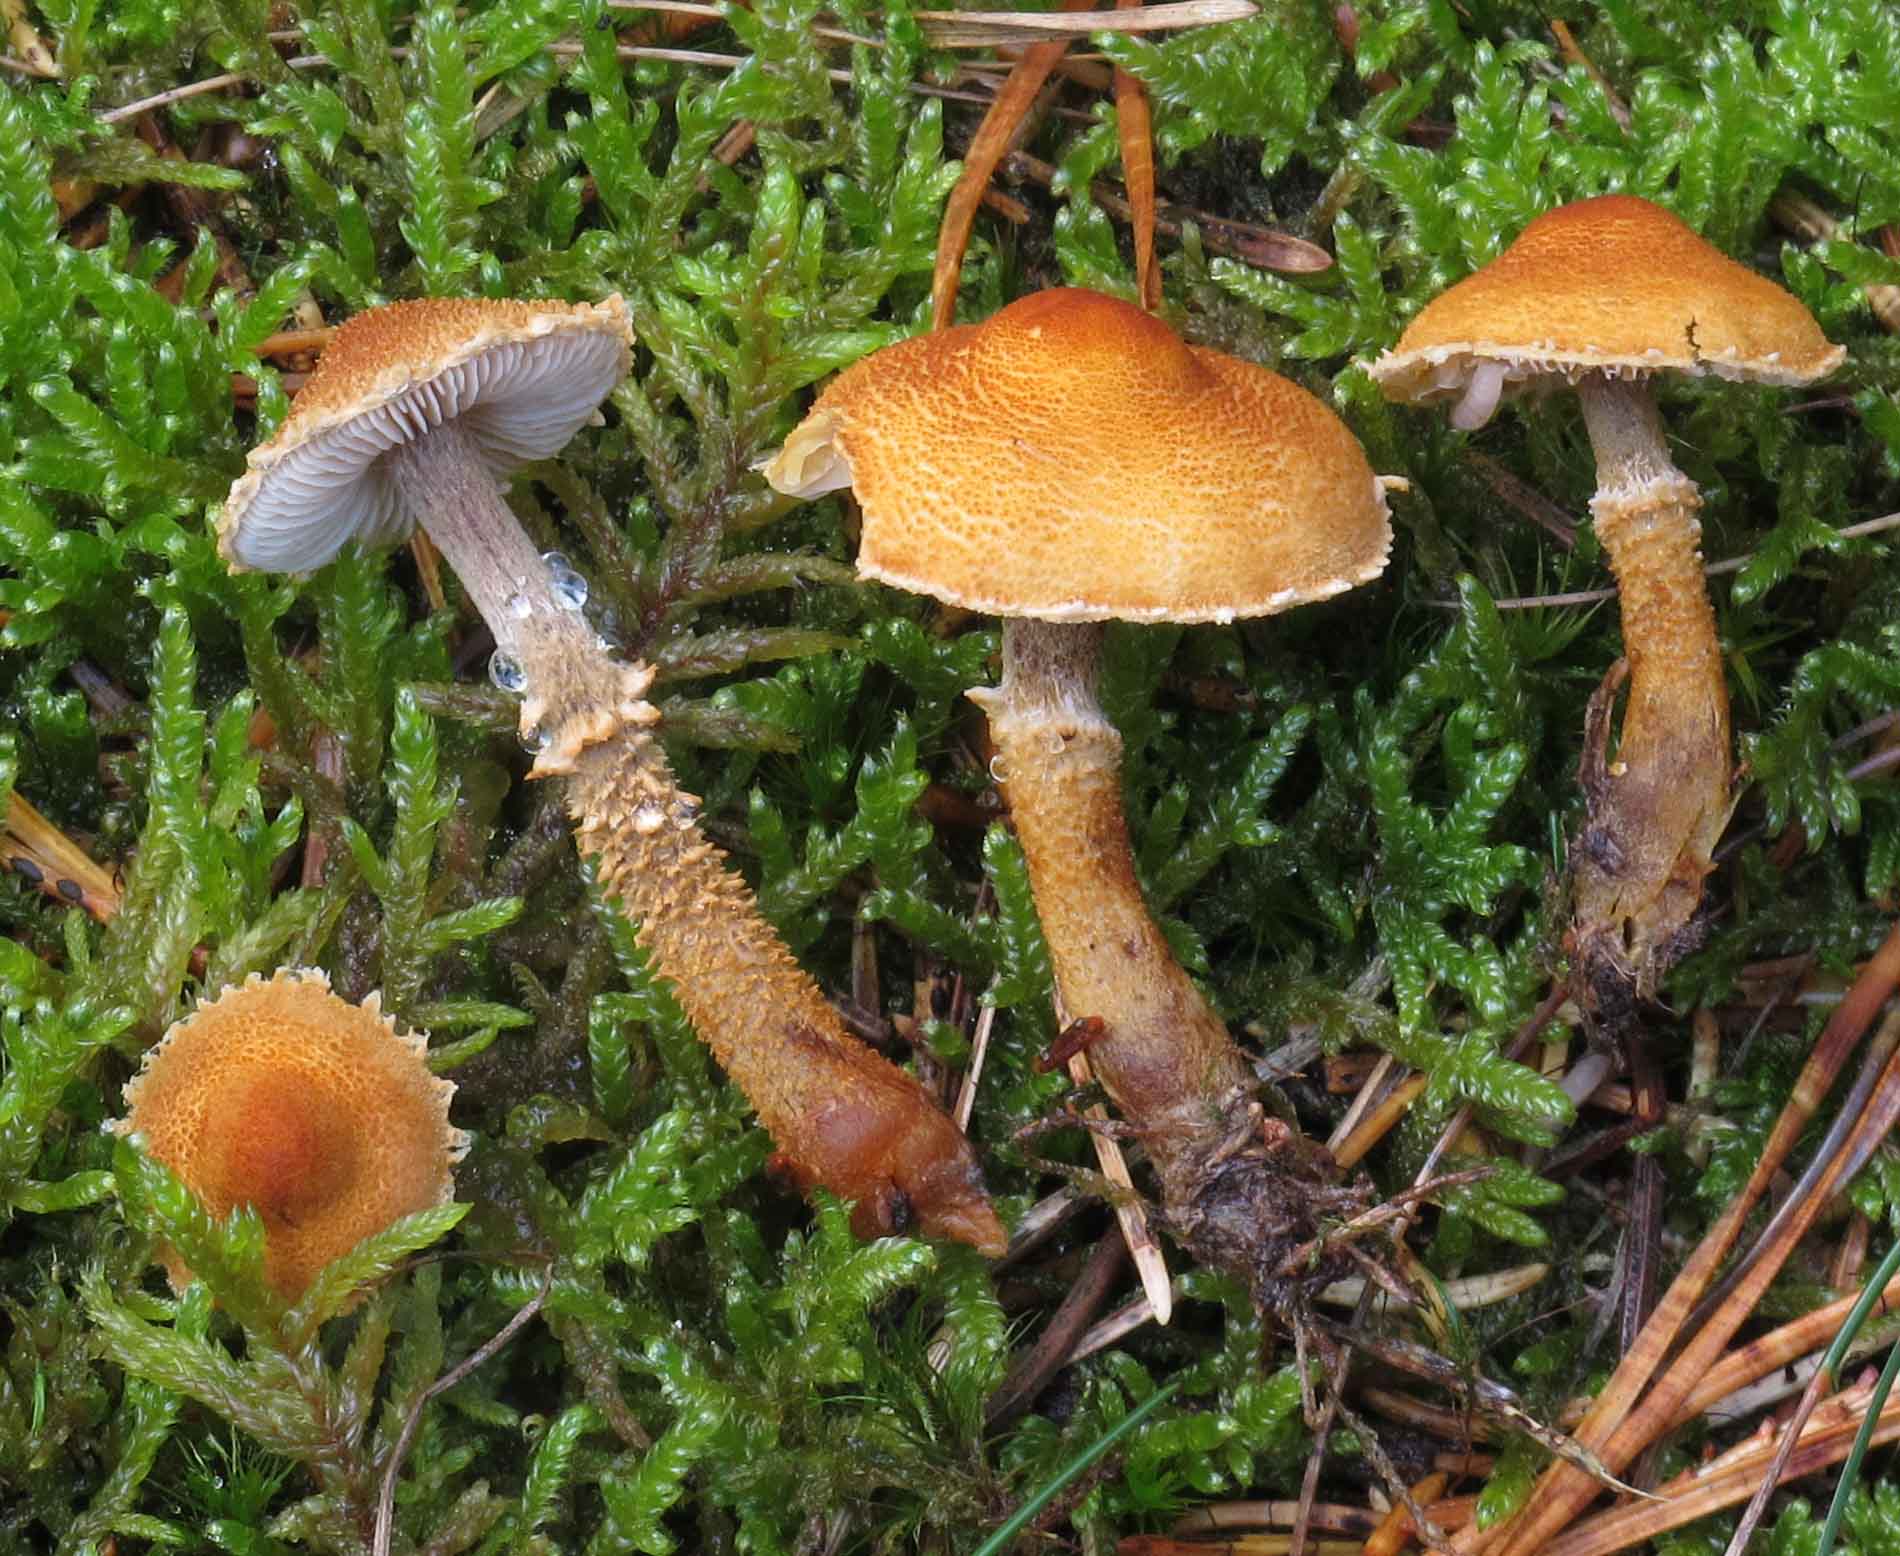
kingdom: Fungi
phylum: Basidiomycota
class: Agaricomycetes
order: Agaricales
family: Tricholomataceae
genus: Cystoderma
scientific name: Cystoderma jasonis
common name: gulkødet grynhat
